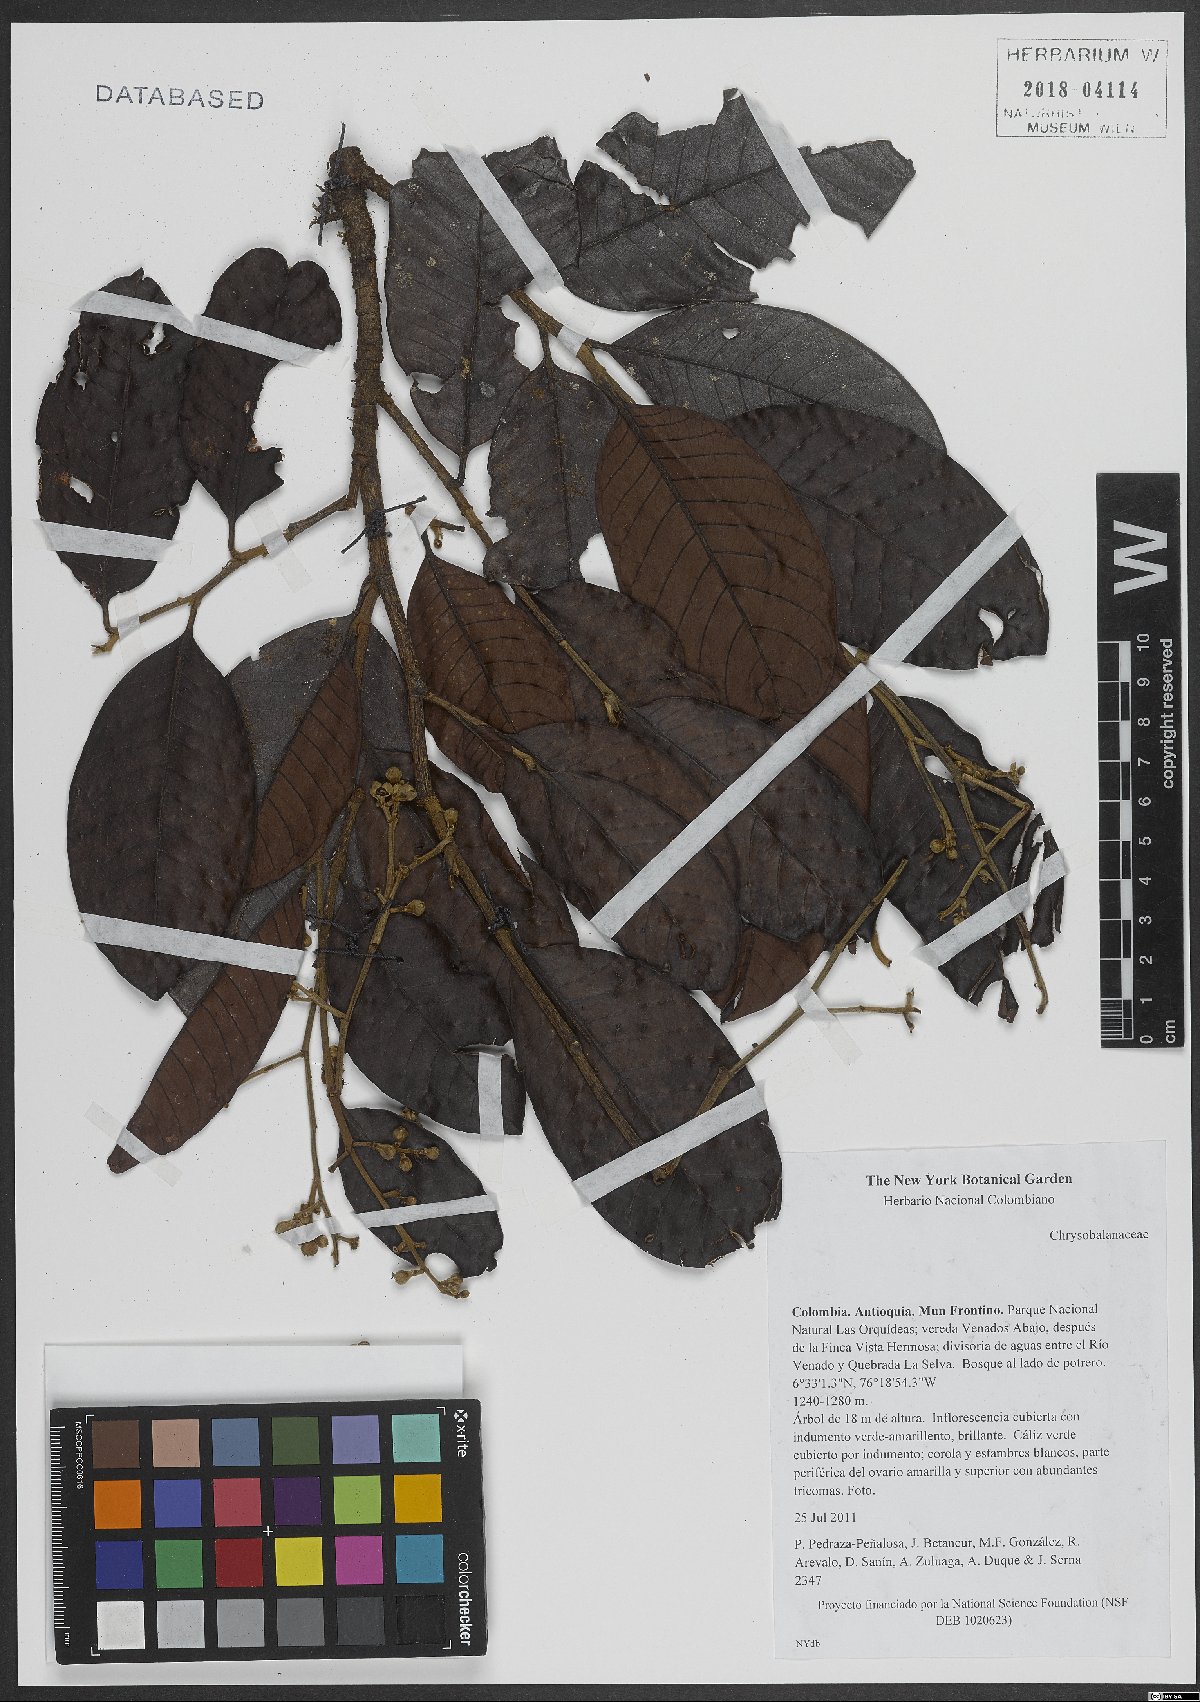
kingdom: Plantae
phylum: Tracheophyta
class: Magnoliopsida
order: Malpighiales
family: Chrysobalanaceae
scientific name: Chrysobalanaceae
